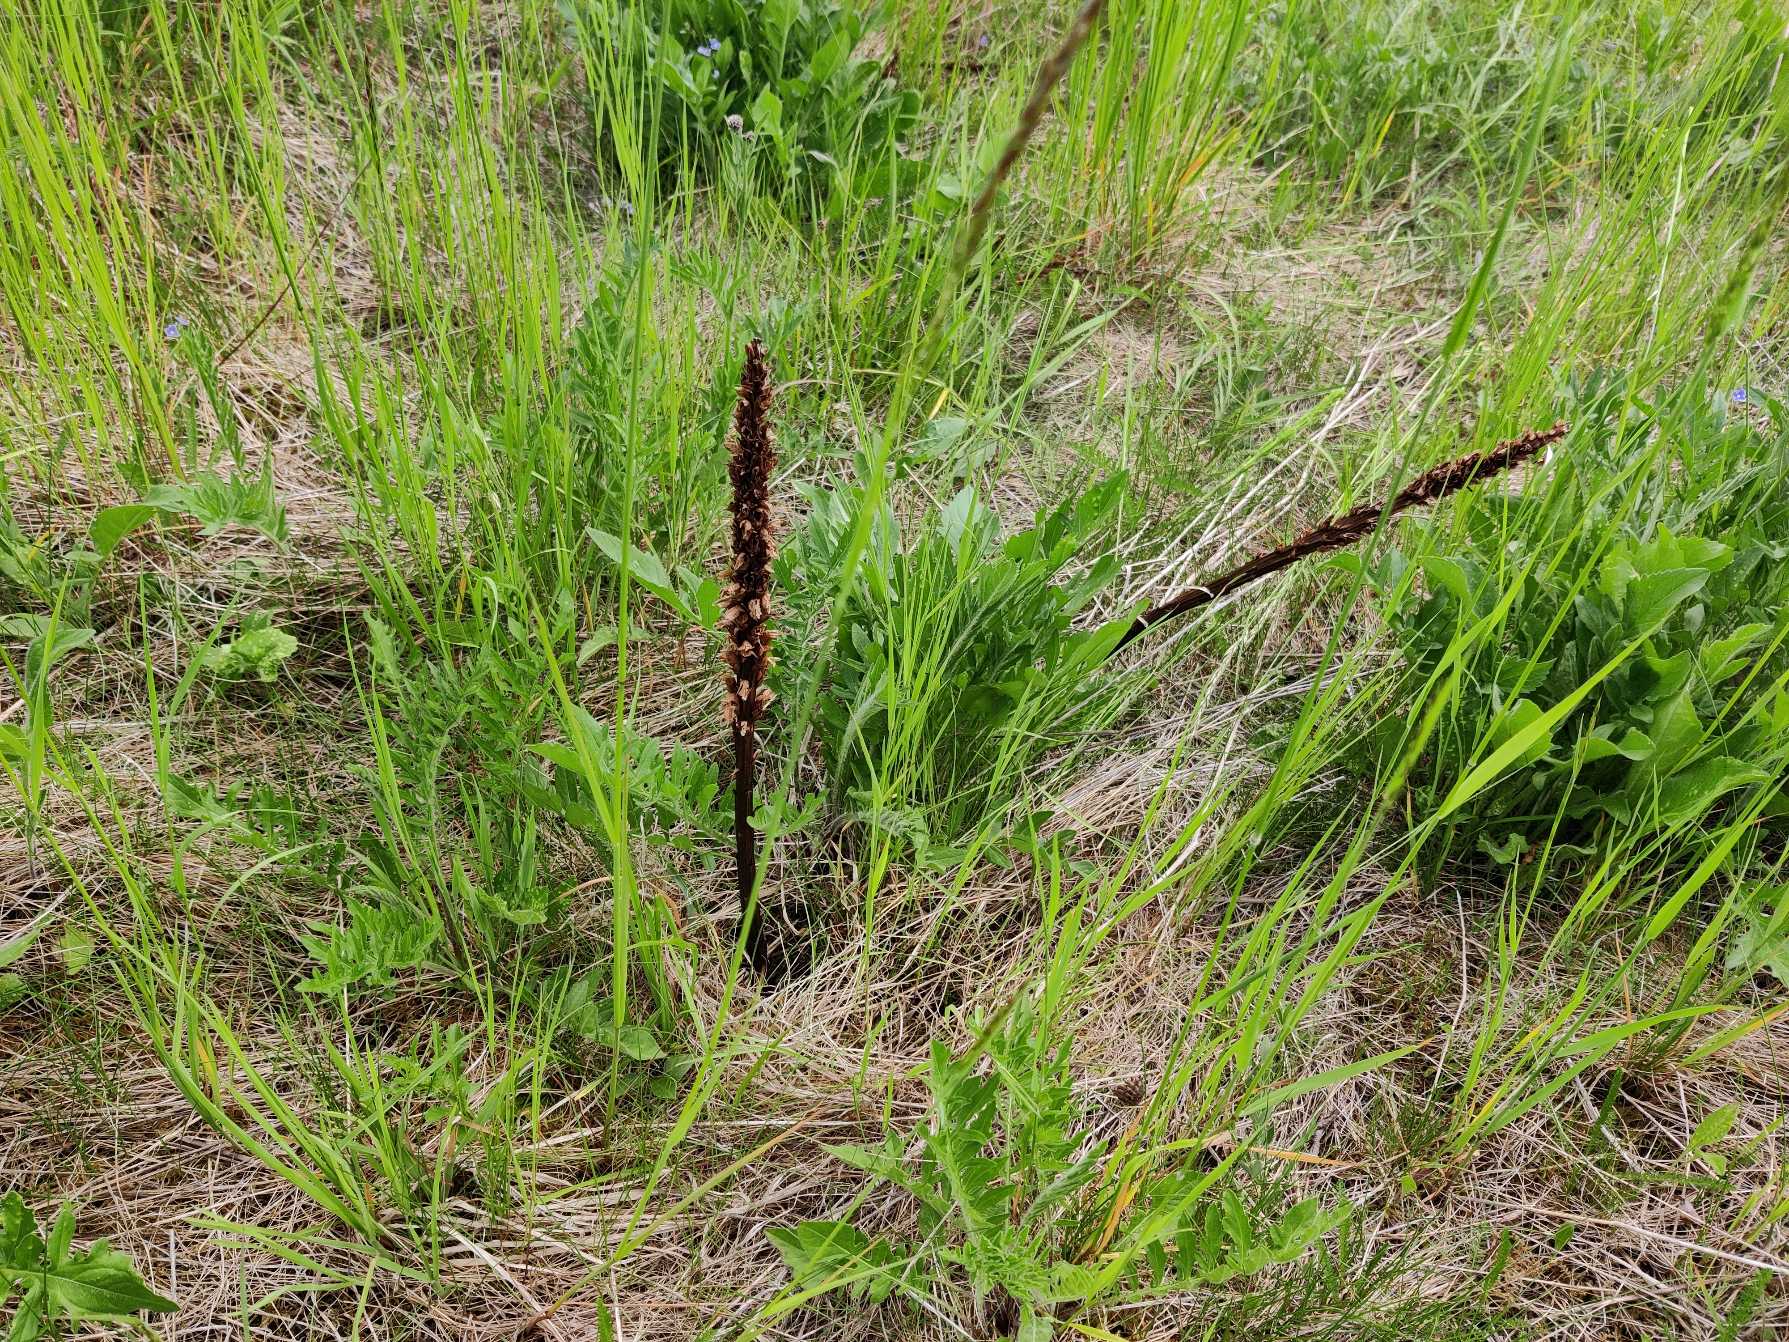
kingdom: Plantae
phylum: Tracheophyta
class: Magnoliopsida
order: Lamiales
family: Orobanchaceae
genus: Orobanche
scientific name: Orobanche elatior
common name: Stor gyvelkvæler
